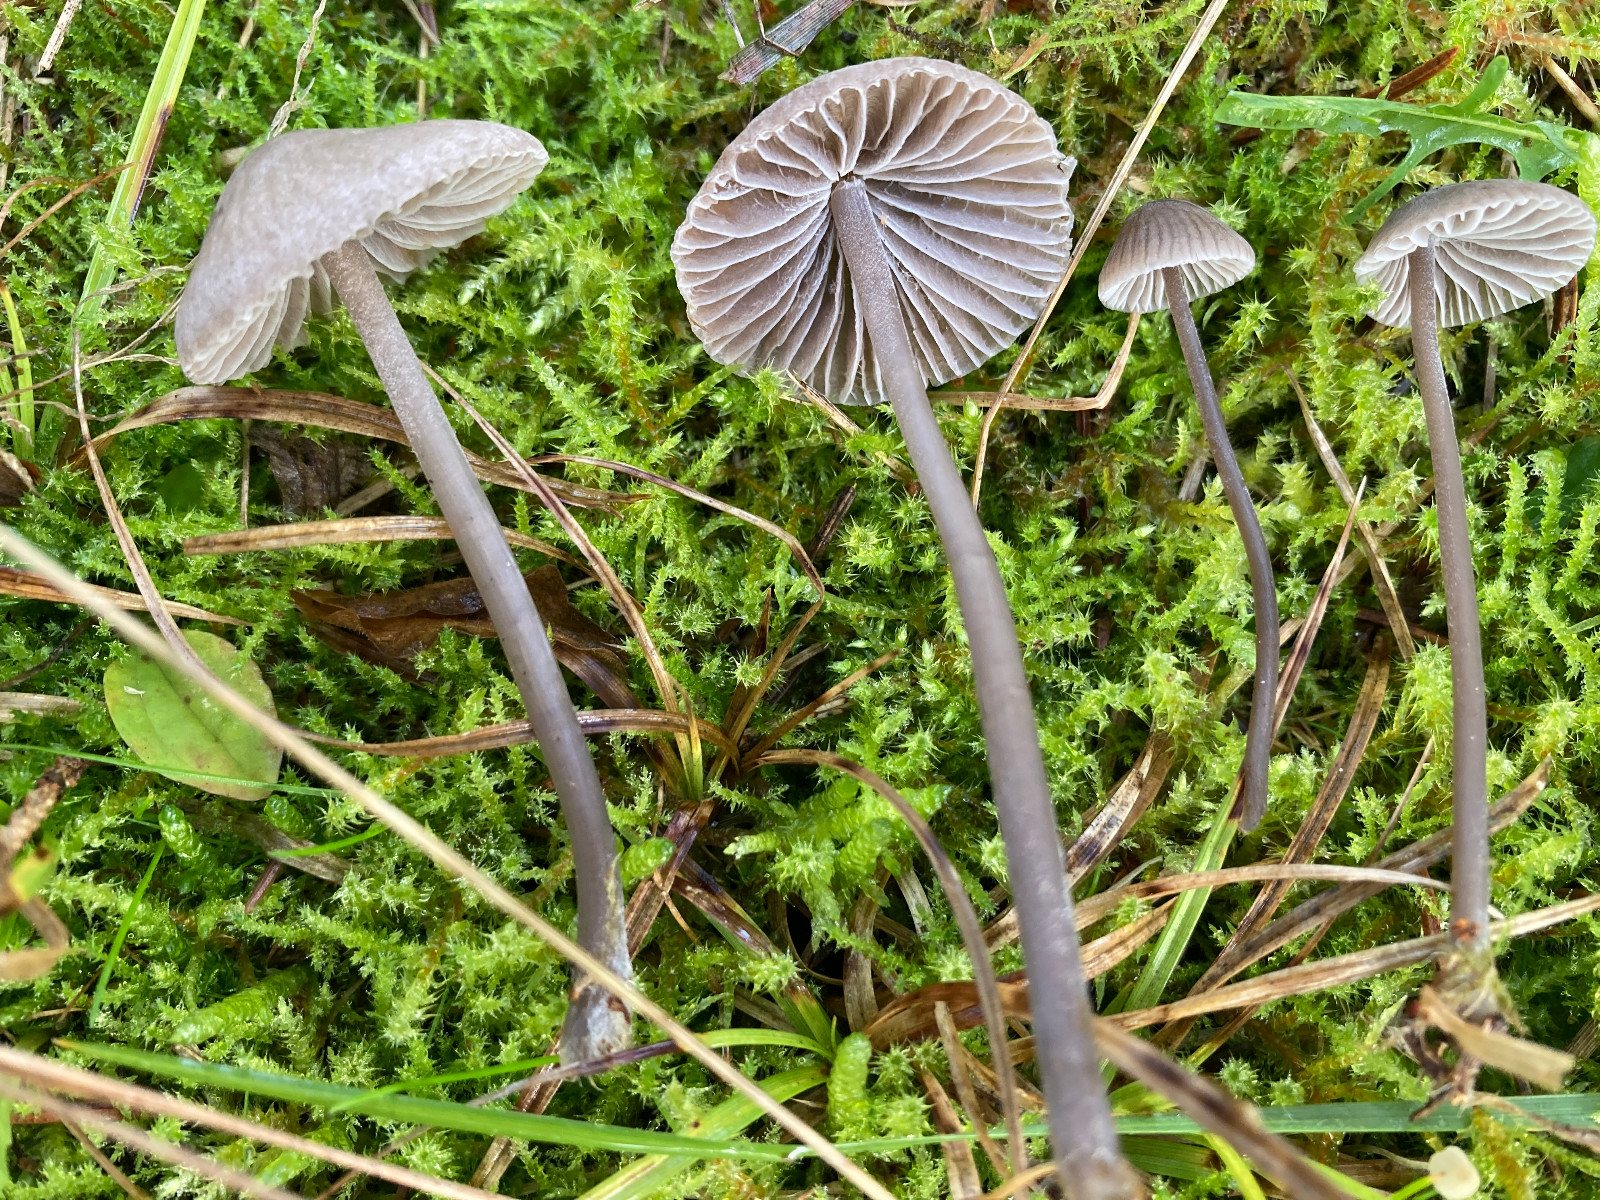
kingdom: Fungi
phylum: Basidiomycota
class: Agaricomycetes
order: Agaricales
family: Mycenaceae
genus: Mycena
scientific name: Mycena aetites
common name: plæne-huesvamp
